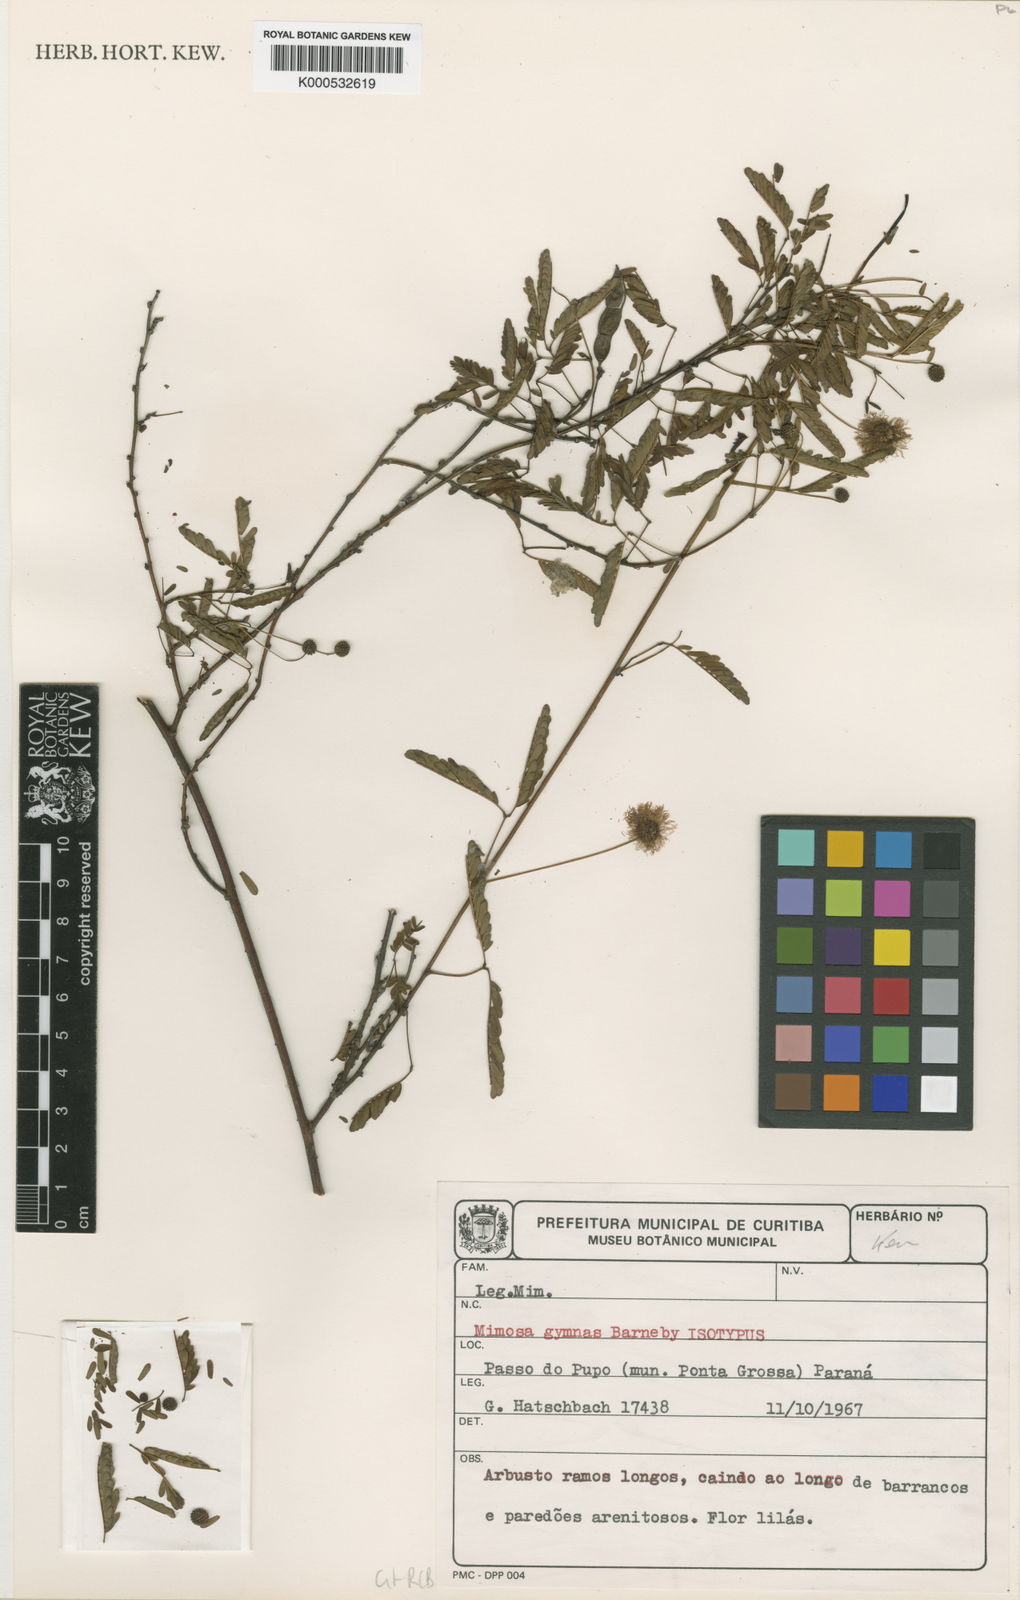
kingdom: Plantae
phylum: Tracheophyta
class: Magnoliopsida
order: Fabales
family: Fabaceae
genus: Mimosa
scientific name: Mimosa gymnas
